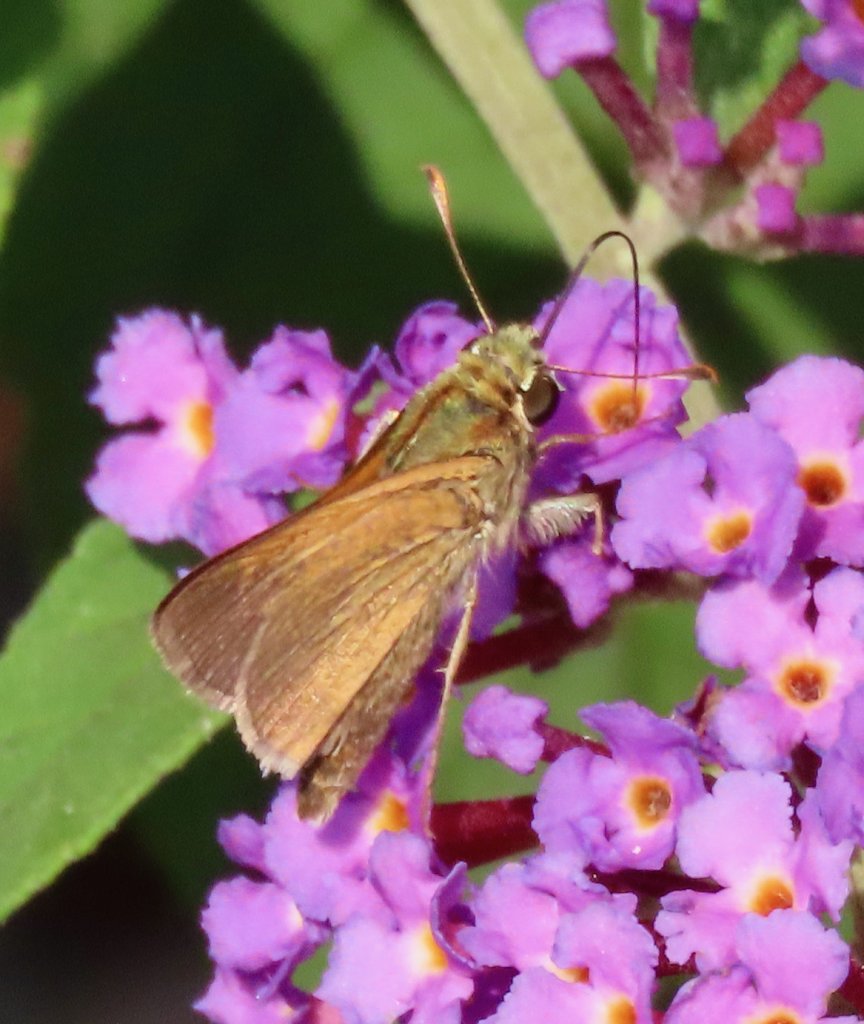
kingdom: Animalia
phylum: Arthropoda
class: Insecta
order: Lepidoptera
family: Hesperiidae
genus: Polites
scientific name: Polites themistocles
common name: Tawny-edged Skipper
